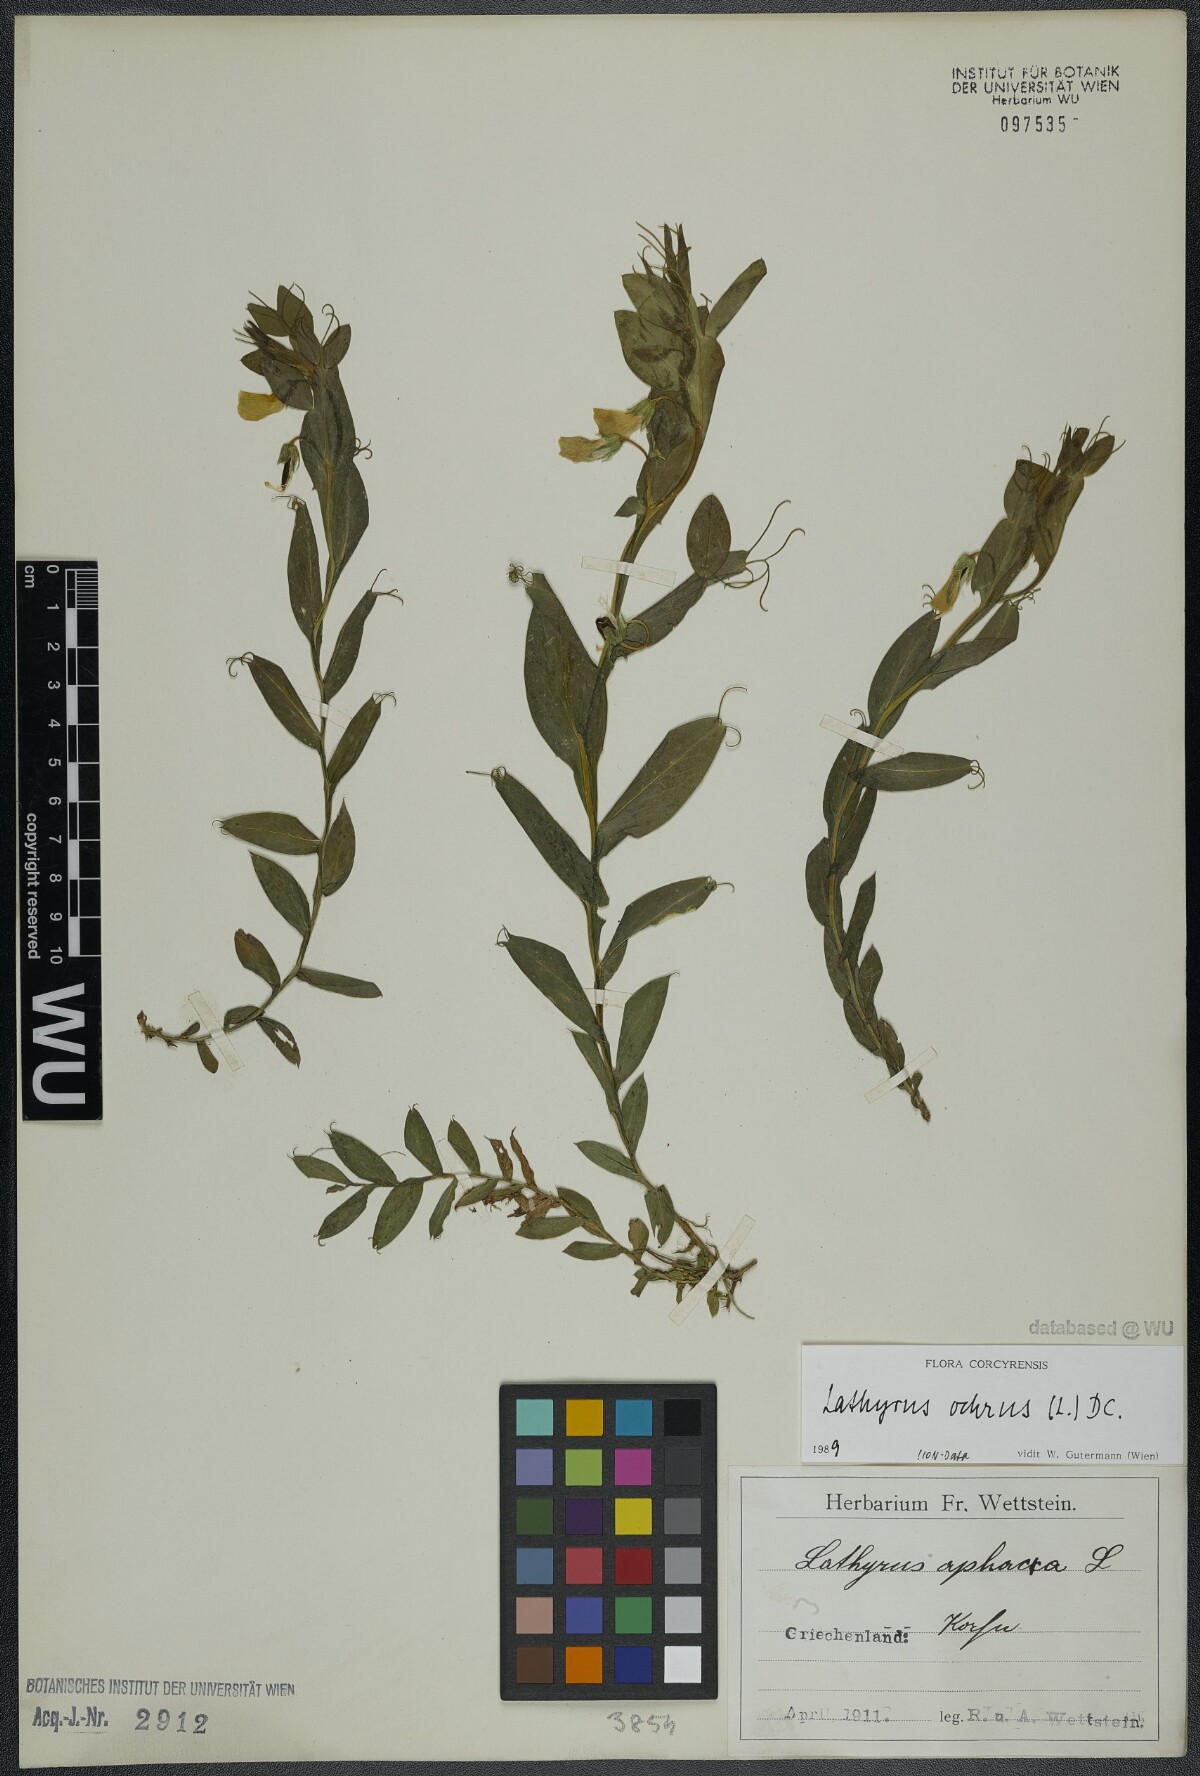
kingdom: Plantae
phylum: Tracheophyta
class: Magnoliopsida
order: Fabales
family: Fabaceae
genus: Lathyrus
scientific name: Lathyrus ochrus
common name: Winged vetchling
